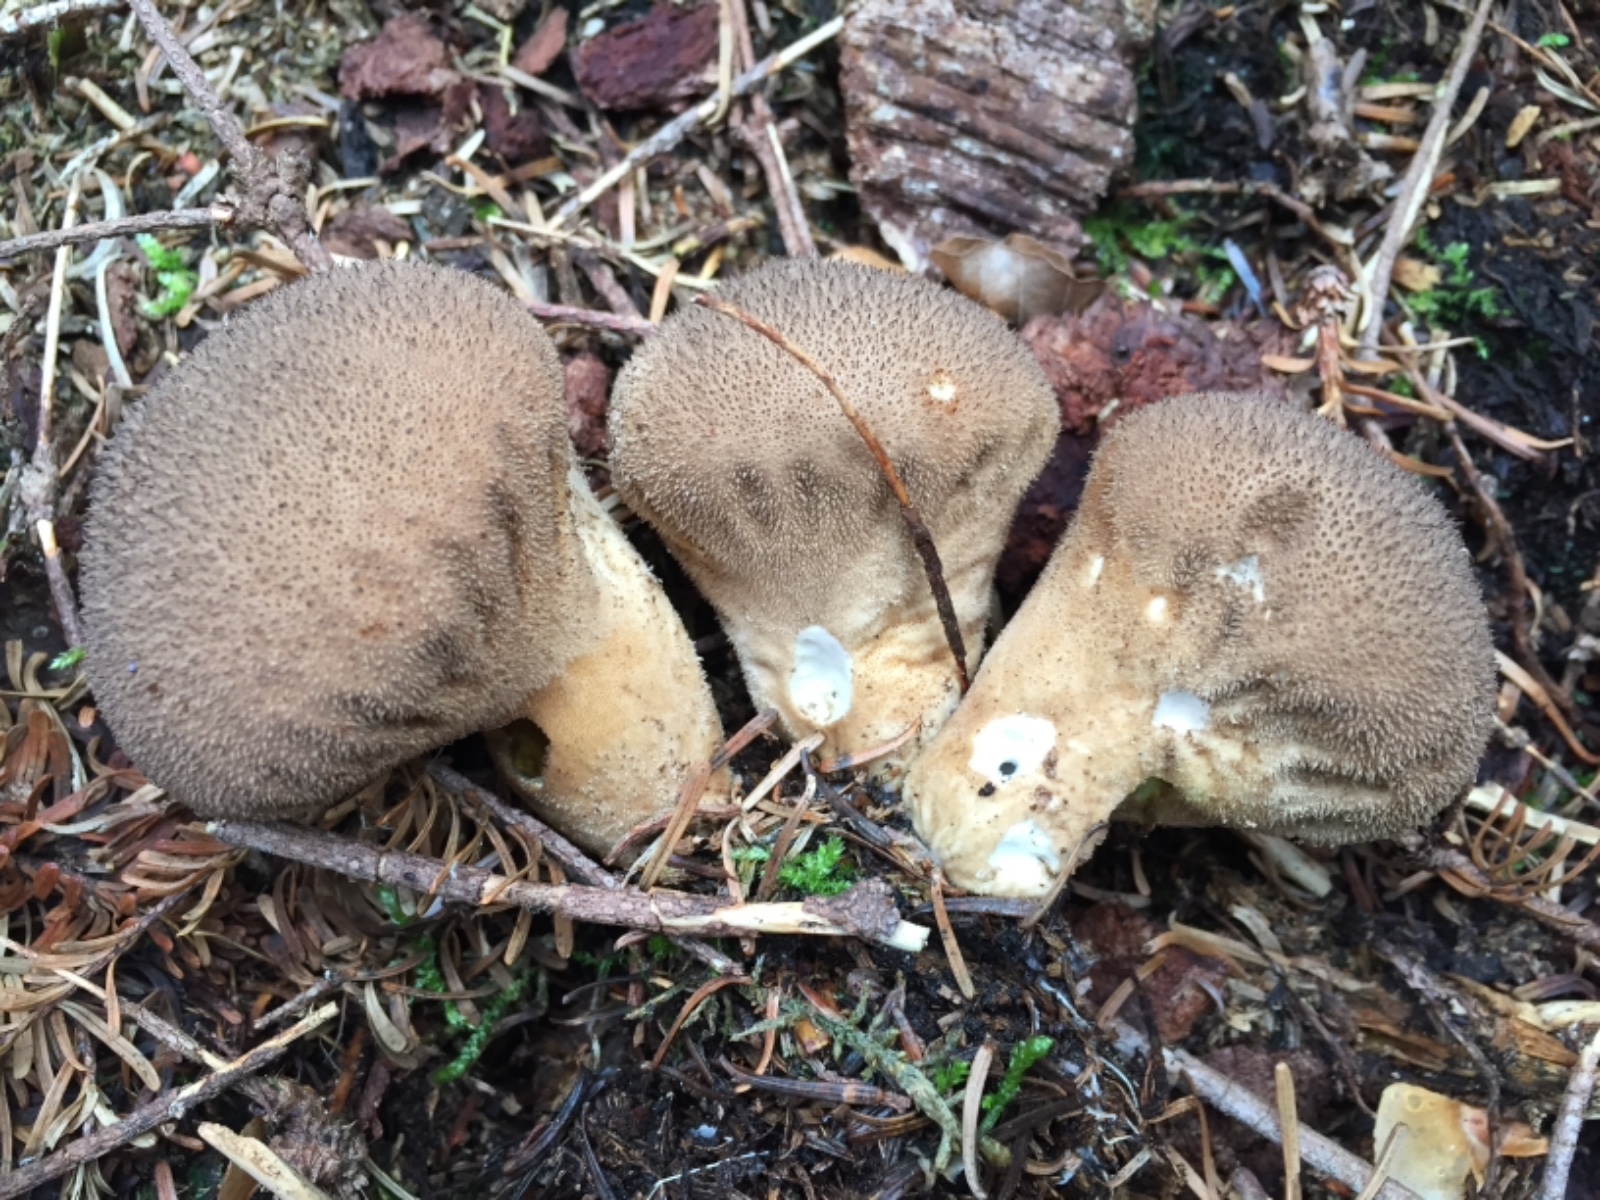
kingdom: Fungi
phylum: Basidiomycota
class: Agaricomycetes
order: Agaricales
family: Lycoperdaceae
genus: Lycoperdon
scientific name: Lycoperdon excipuliforme
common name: højstokket støvbold
